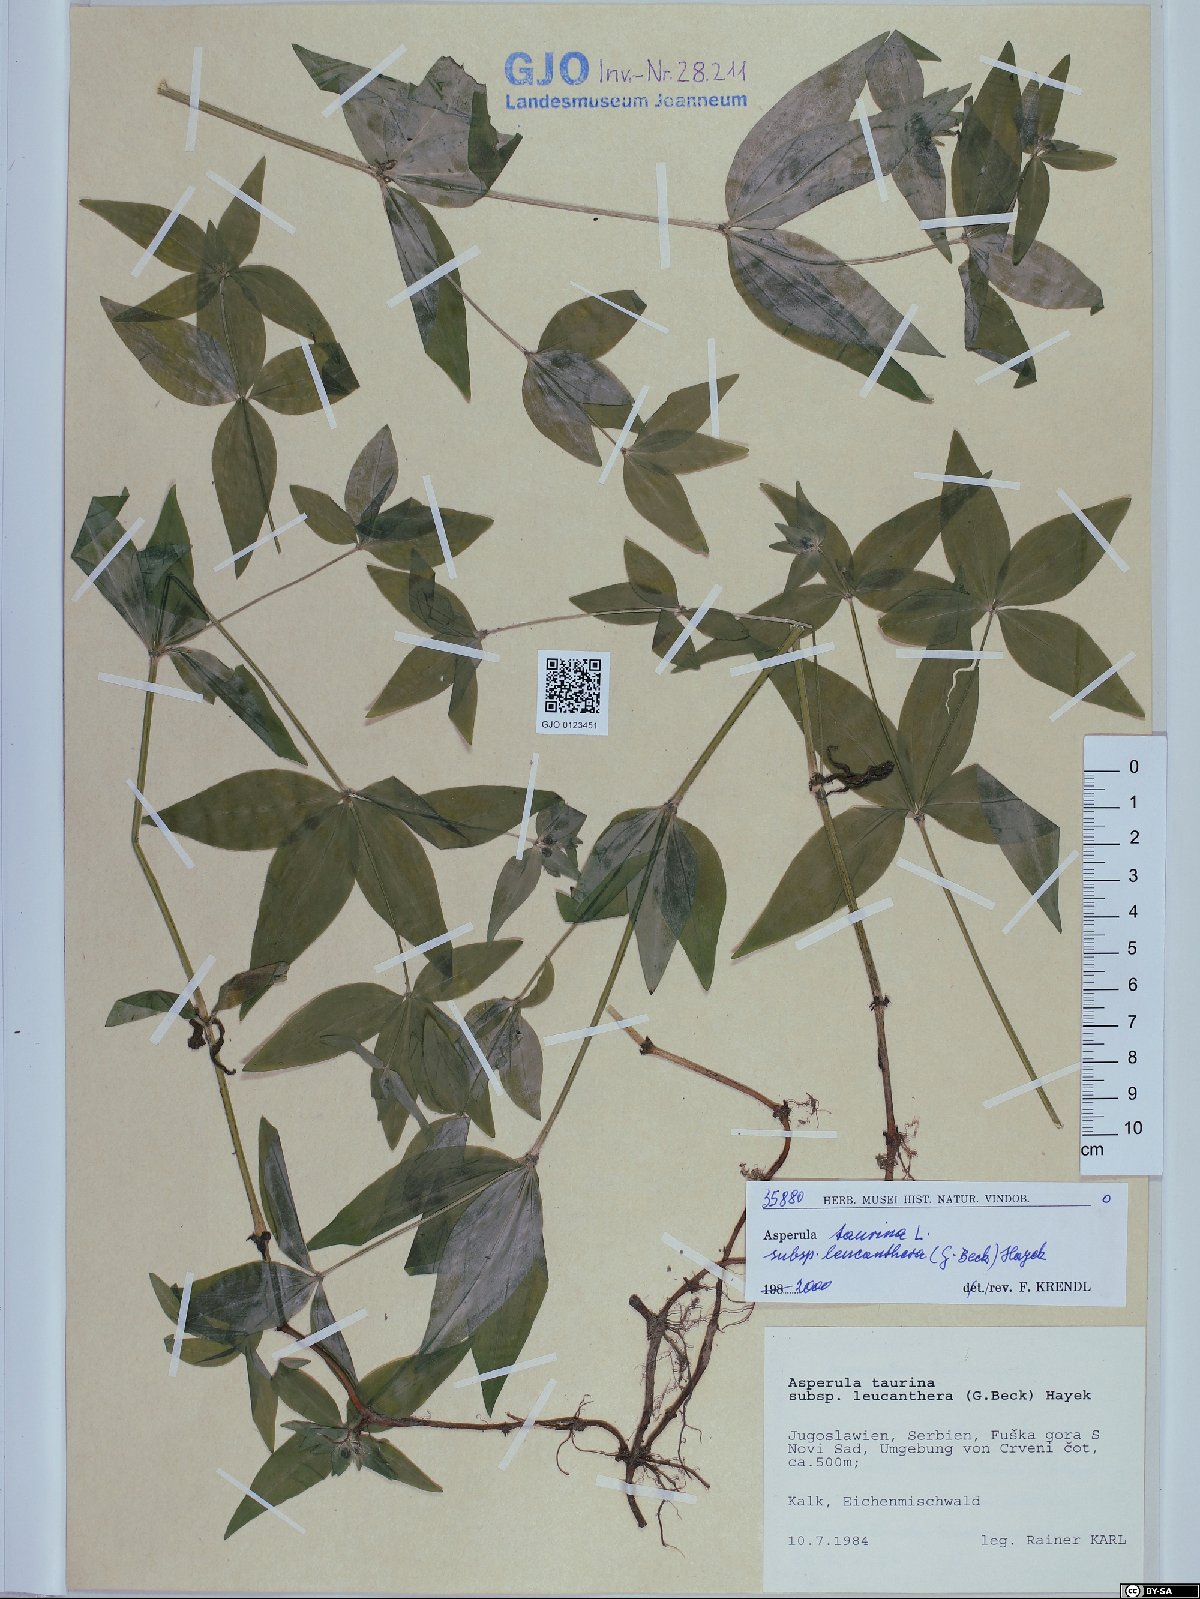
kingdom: Plantae
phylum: Tracheophyta
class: Magnoliopsida
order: Gentianales
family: Rubiaceae
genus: Asperula
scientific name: Asperula taurina
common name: Pink woodruff
